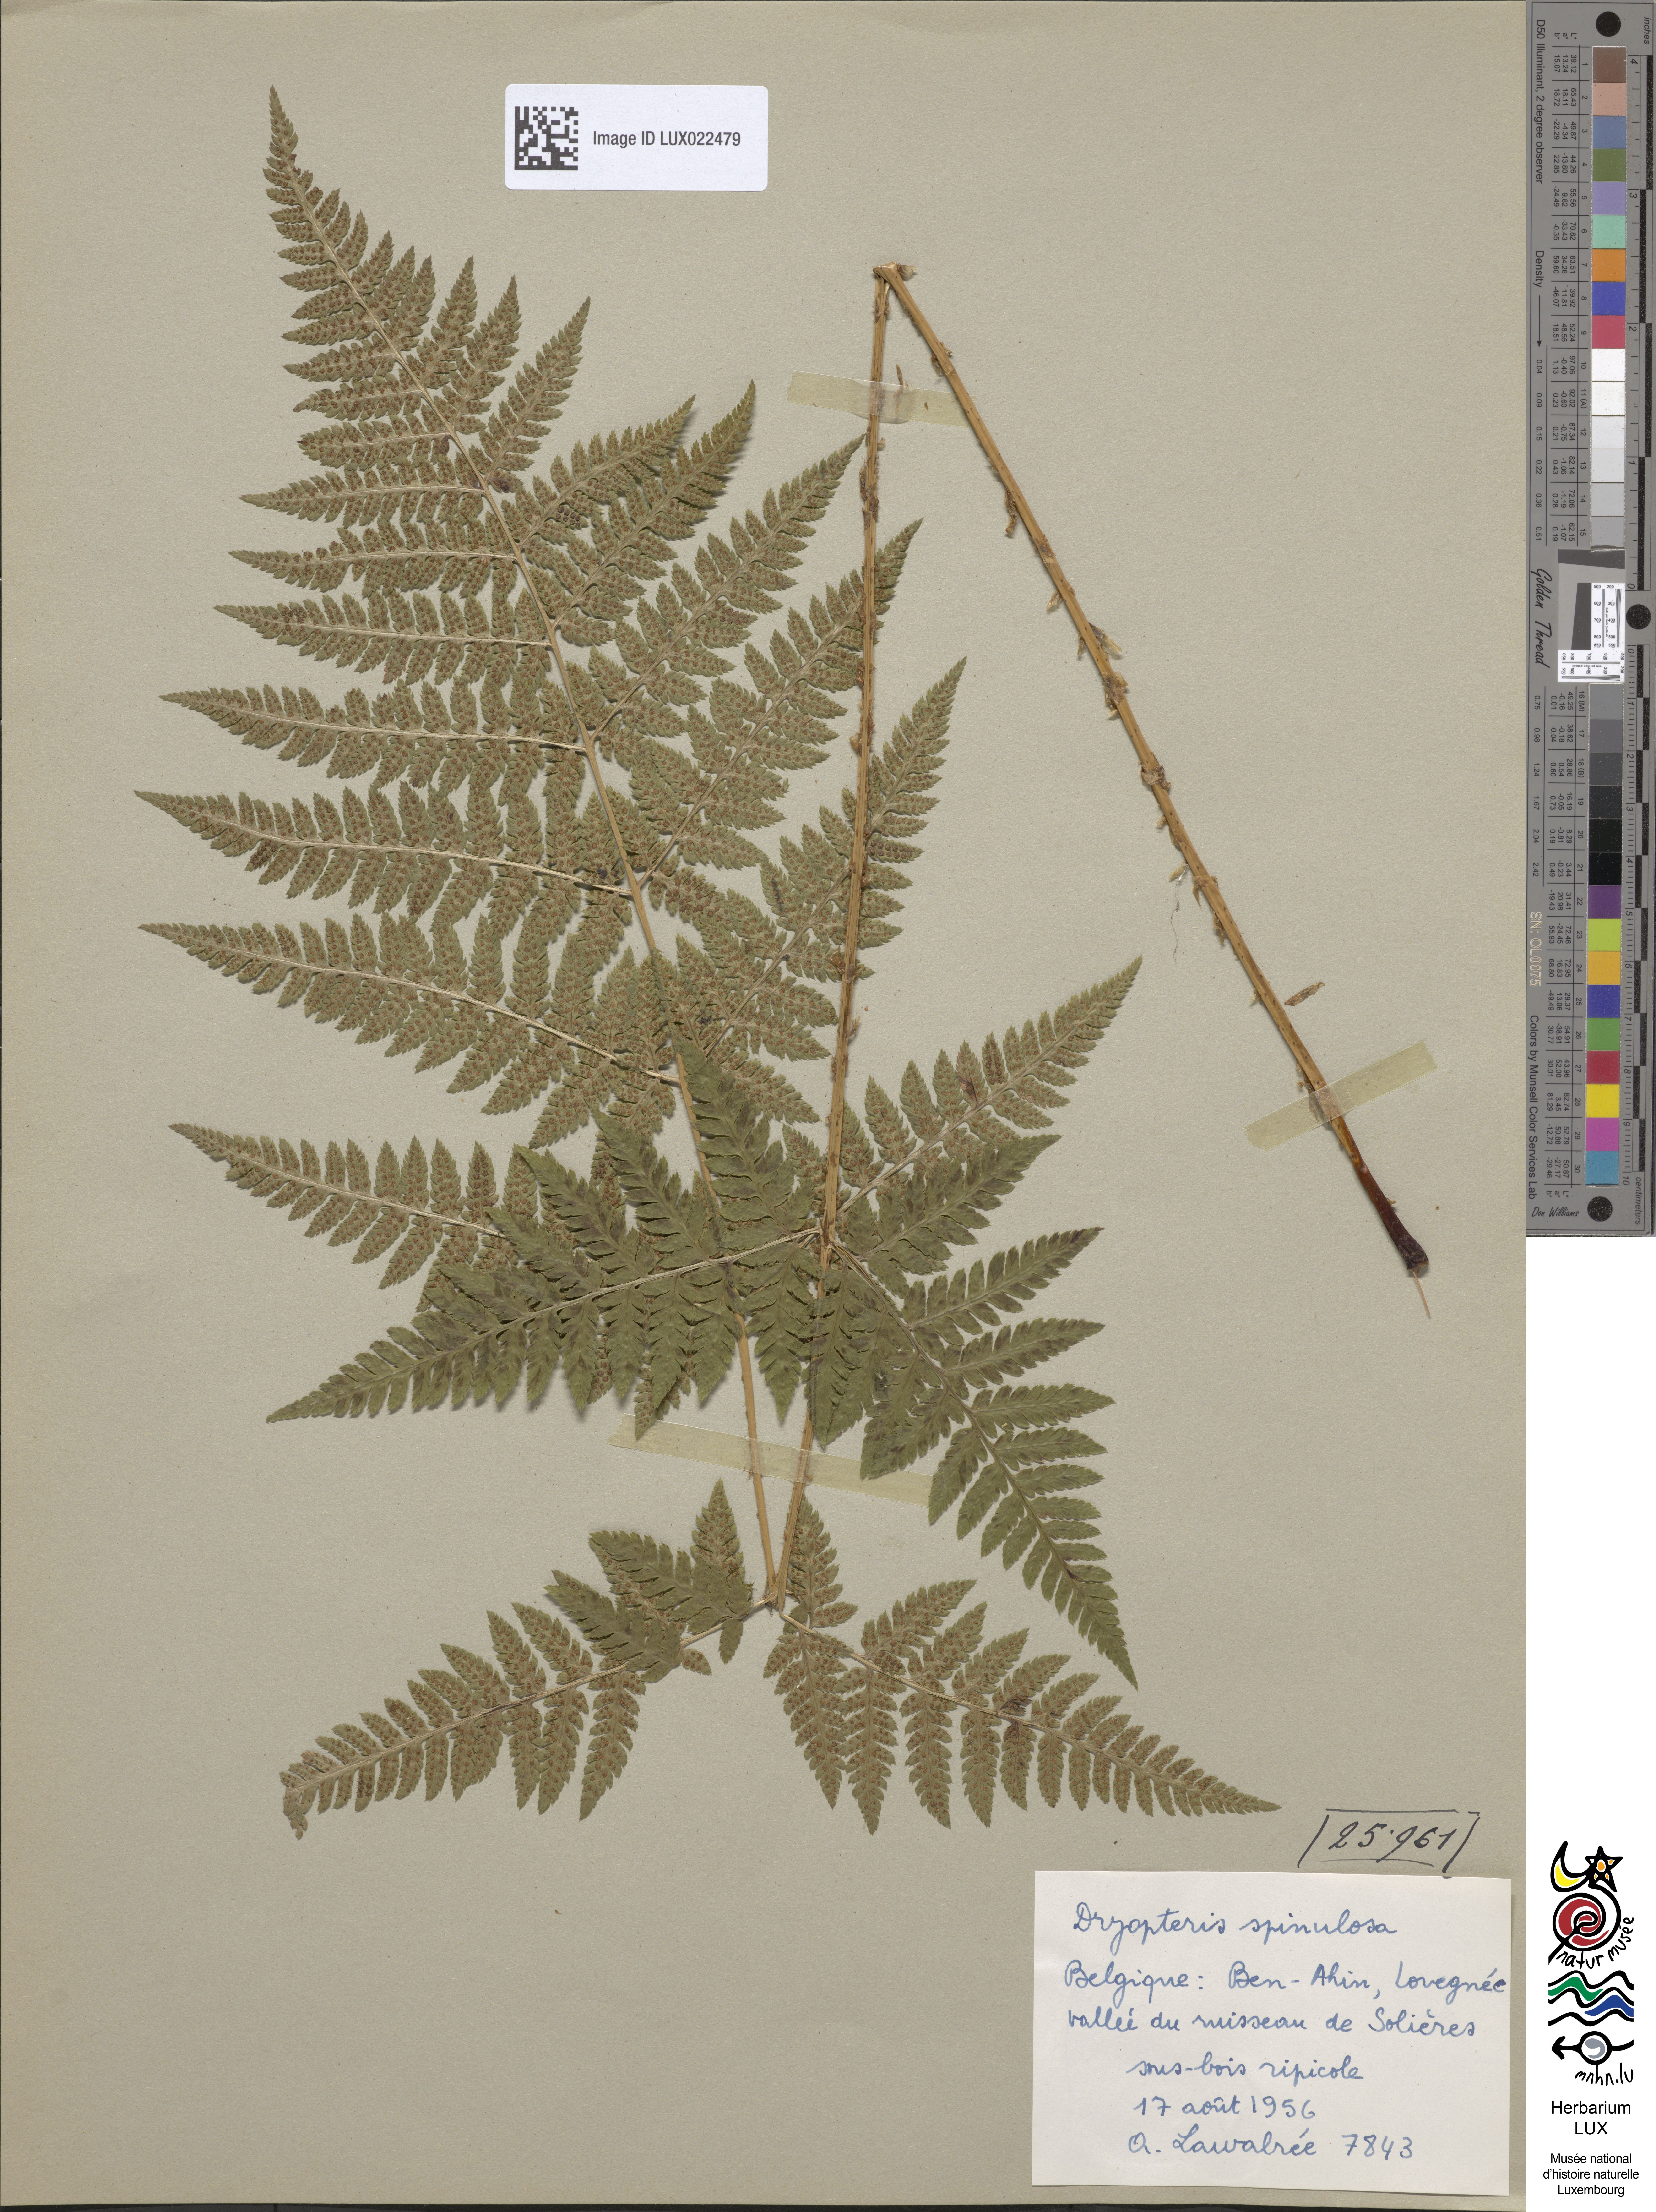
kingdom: Plantae
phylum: Tracheophyta
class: Polypodiopsida
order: Polypodiales
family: Dryopteridaceae
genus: Dryopteris
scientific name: Dryopteris carthusiana
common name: Narrow buckler-fern
